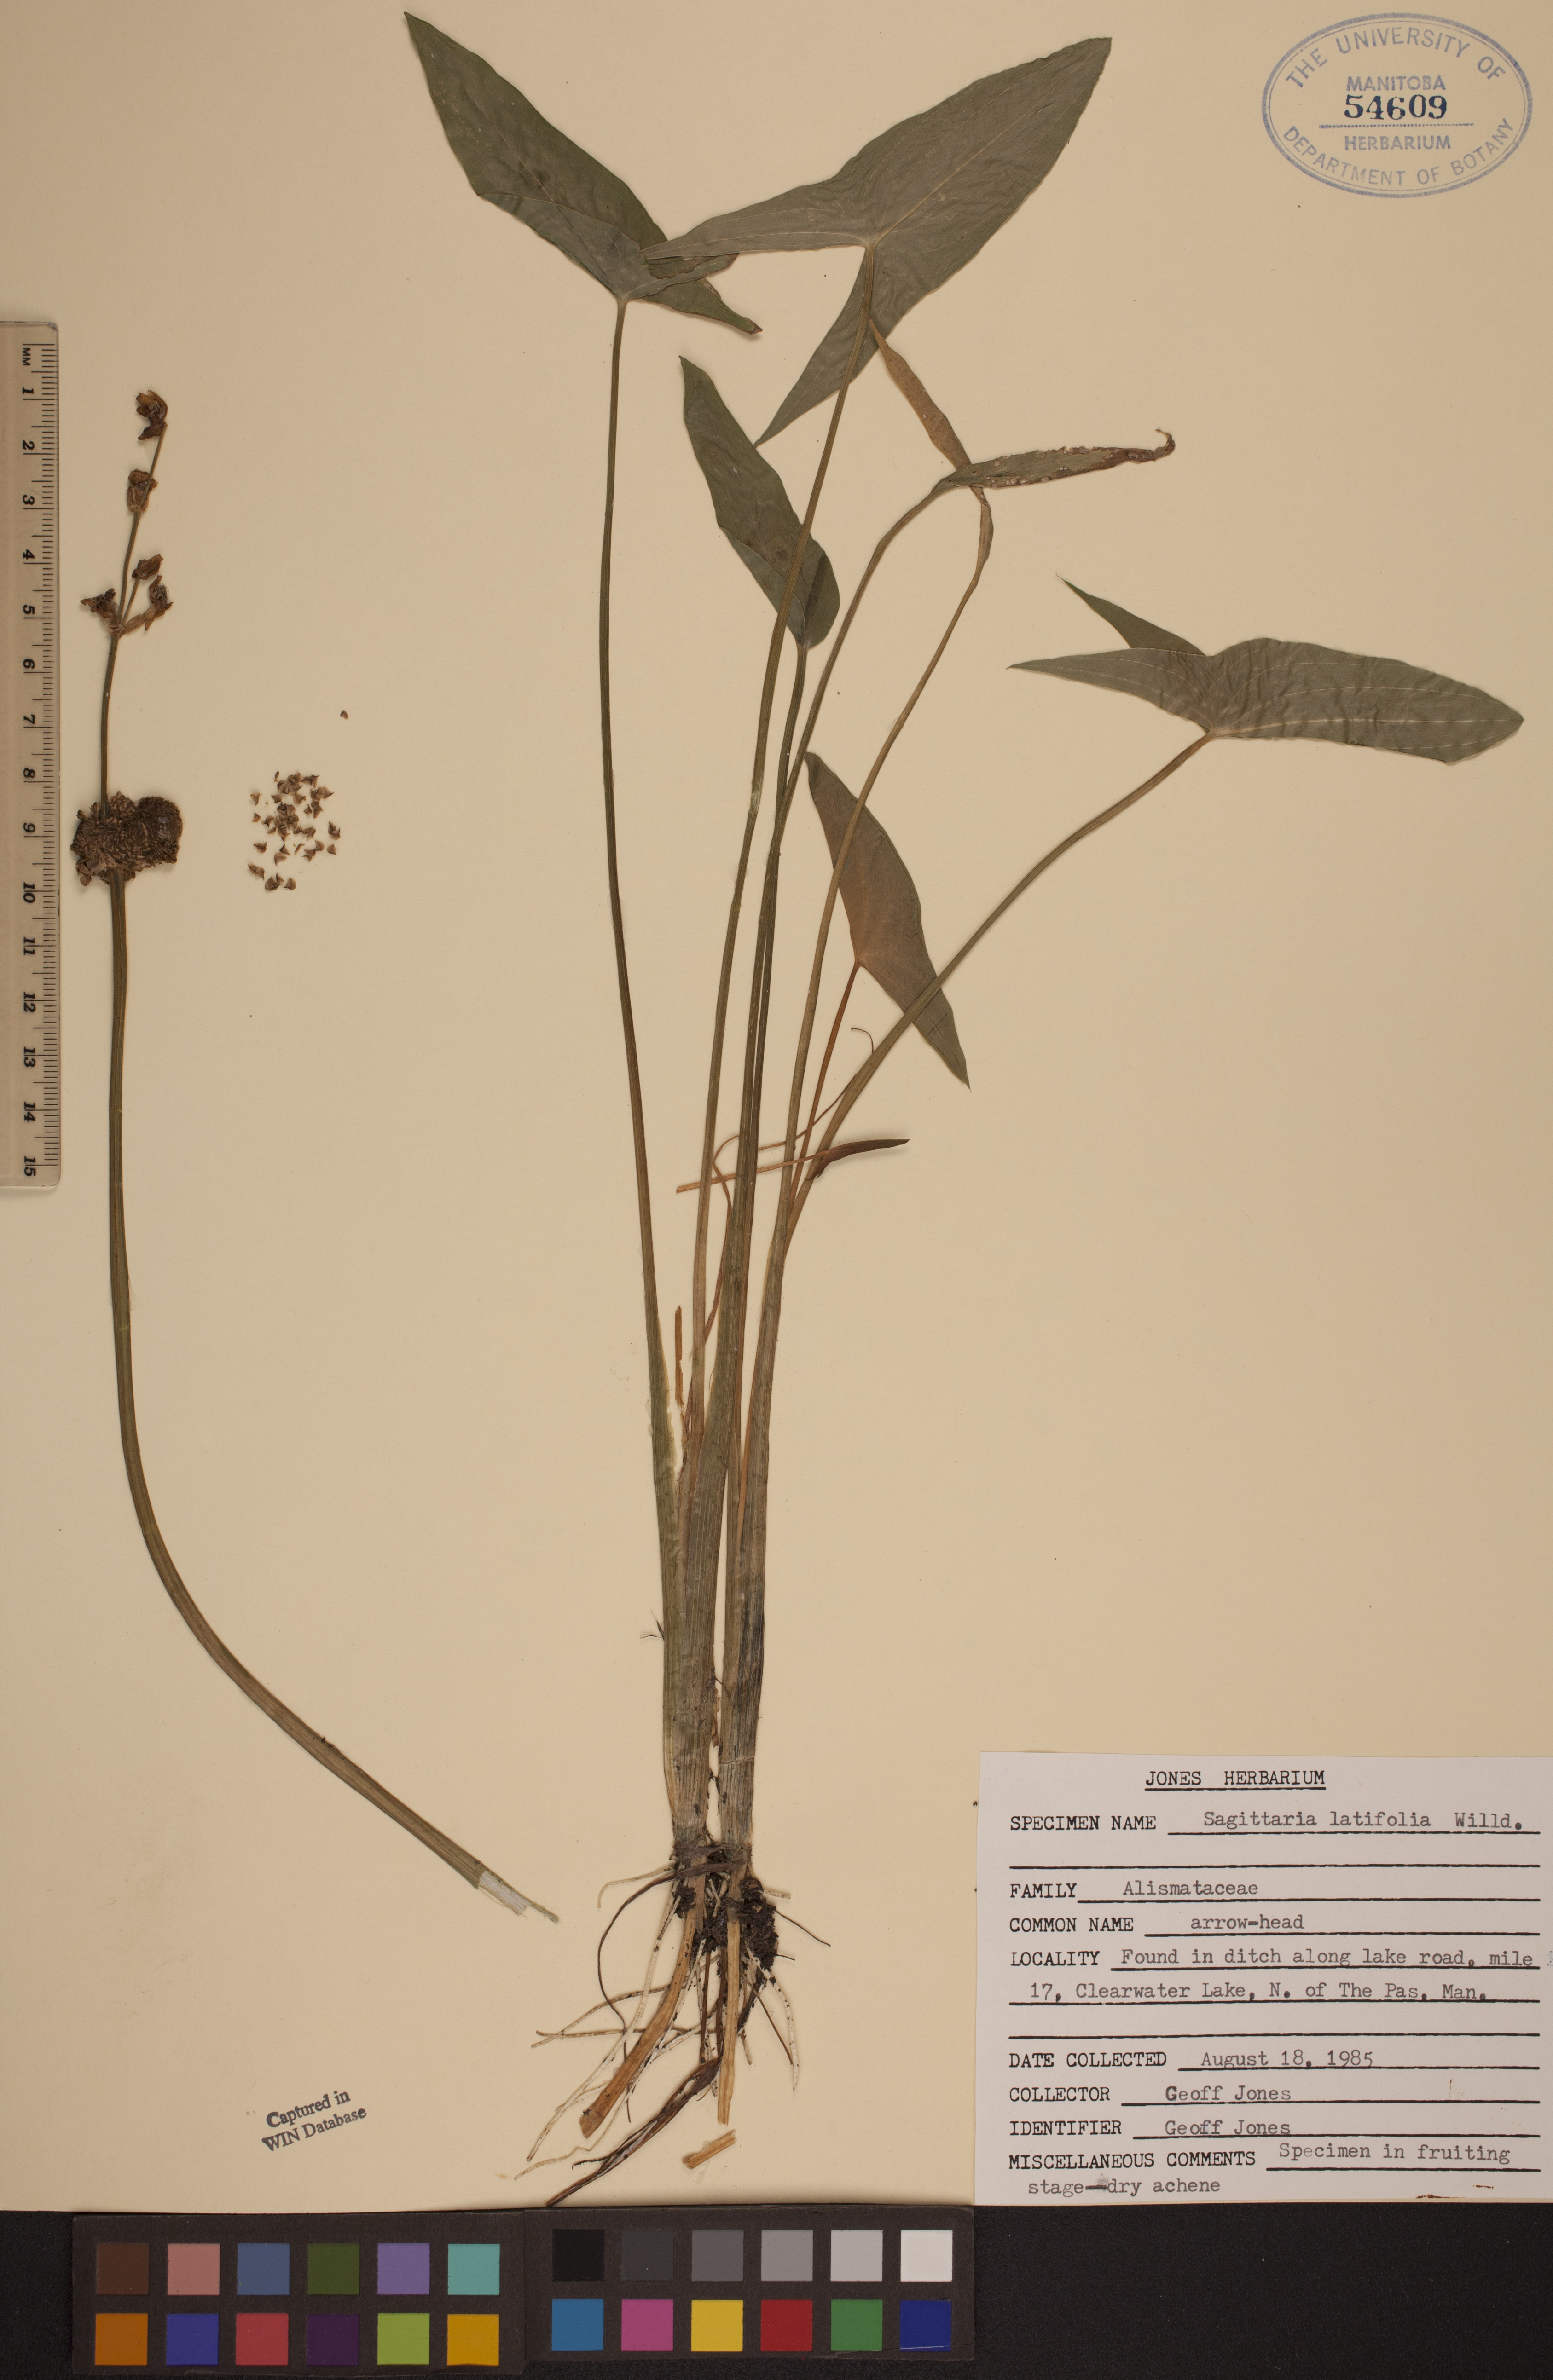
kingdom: Plantae
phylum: Tracheophyta
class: Liliopsida
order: Alismatales
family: Alismataceae
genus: Sagittaria
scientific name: Sagittaria latifolia
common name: Duck-potato
